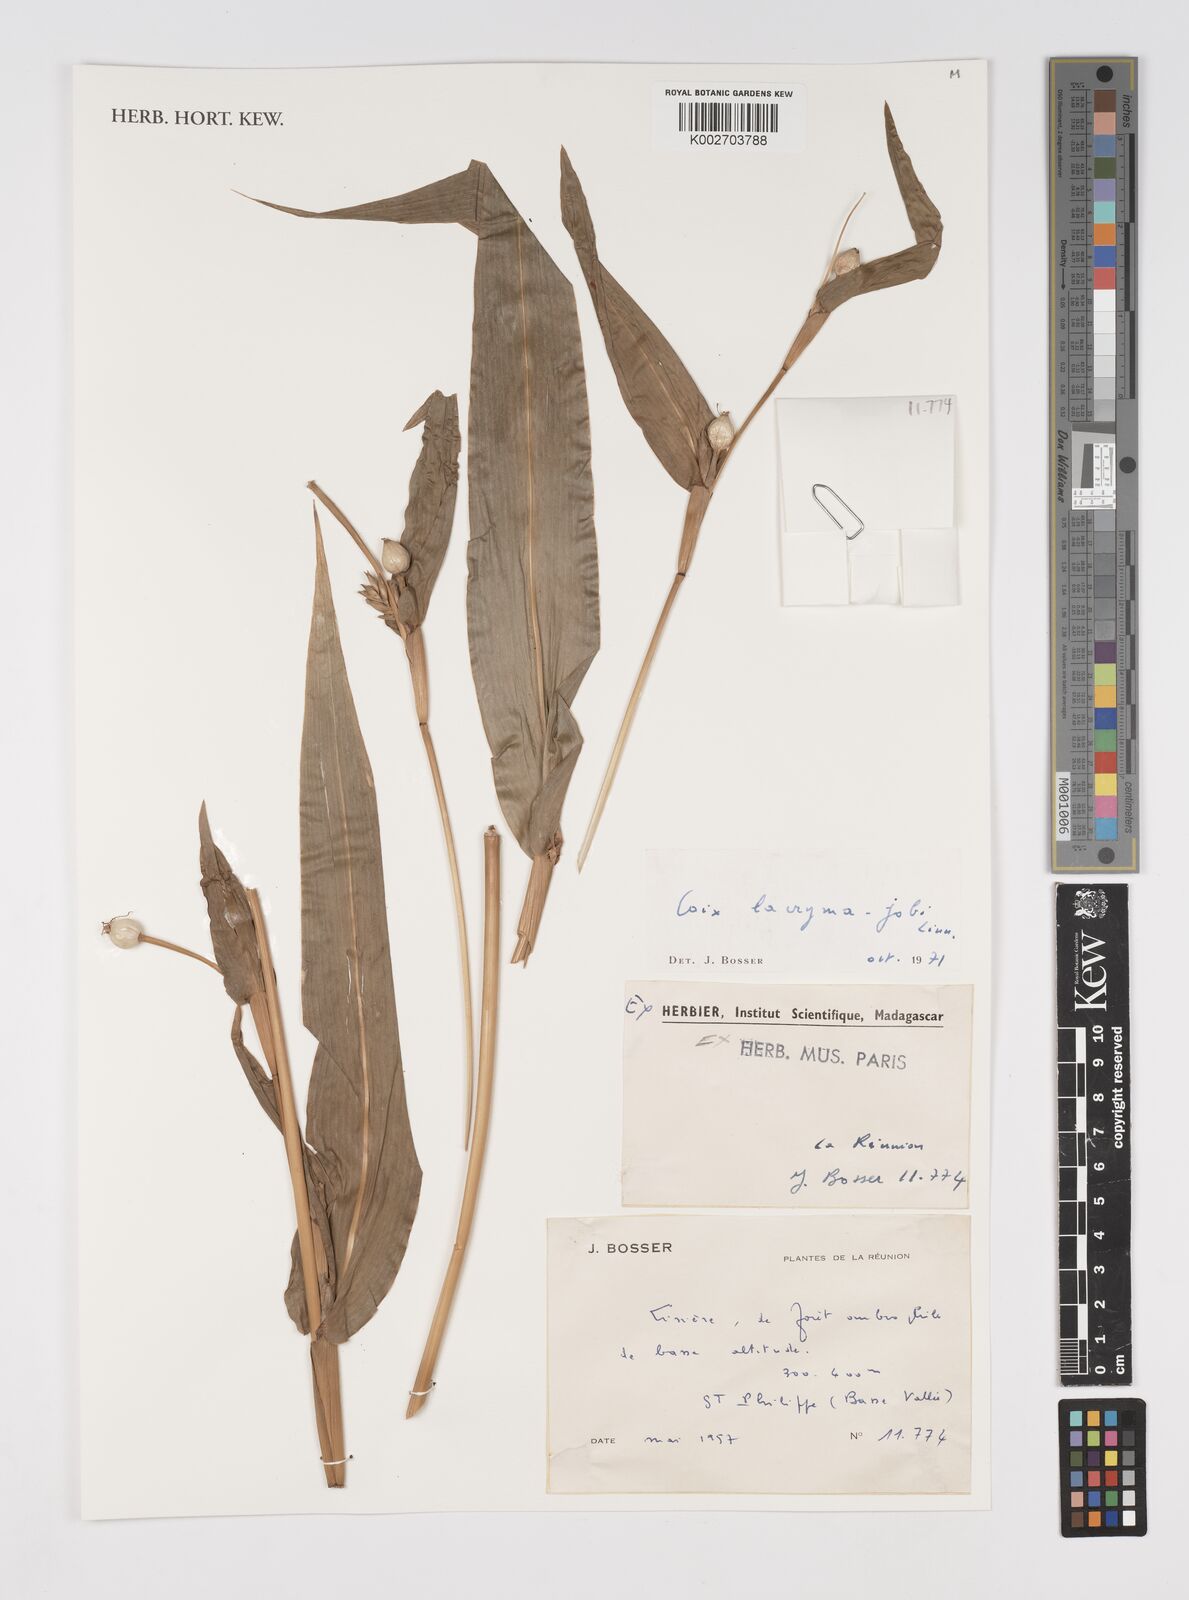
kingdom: Plantae
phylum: Tracheophyta
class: Liliopsida
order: Poales
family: Poaceae
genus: Coix
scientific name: Coix lacryma-jobi
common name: Job's tears
